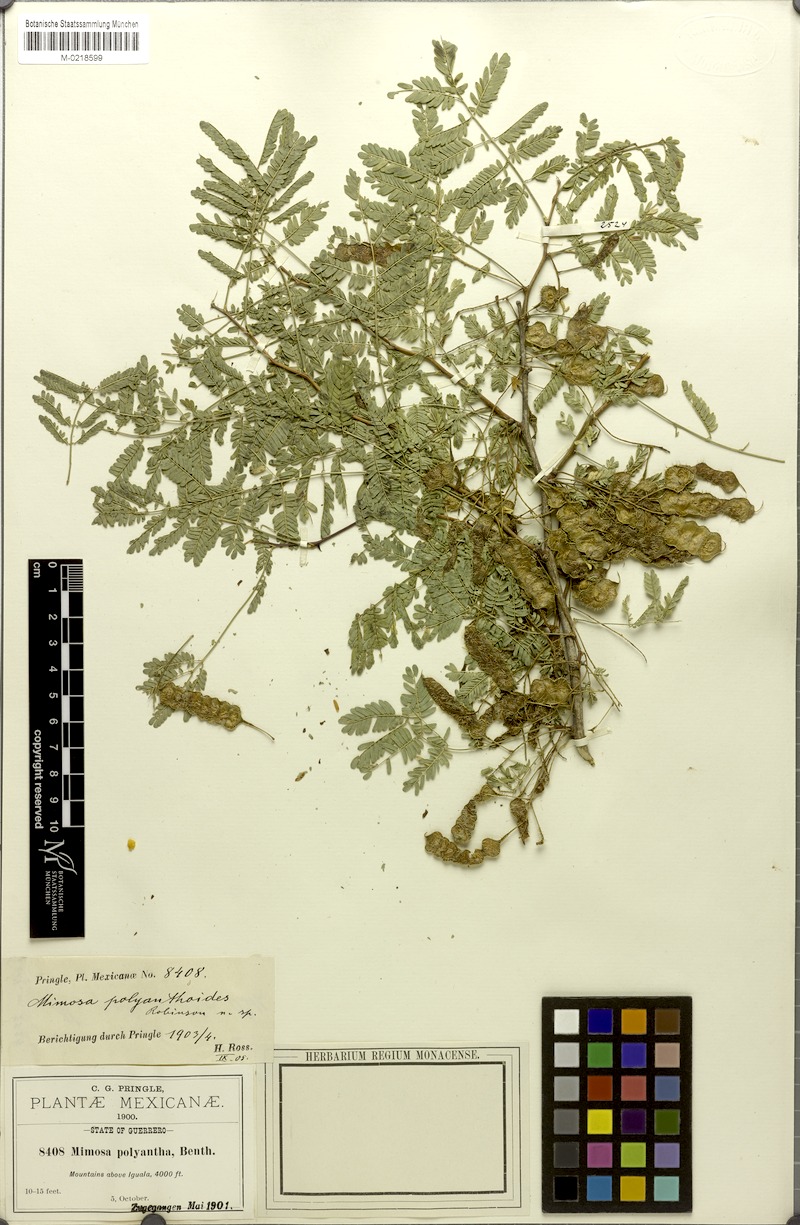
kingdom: Plantae
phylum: Tracheophyta
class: Magnoliopsida
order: Fabales
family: Fabaceae
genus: Mimosa
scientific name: Mimosa polyantha
